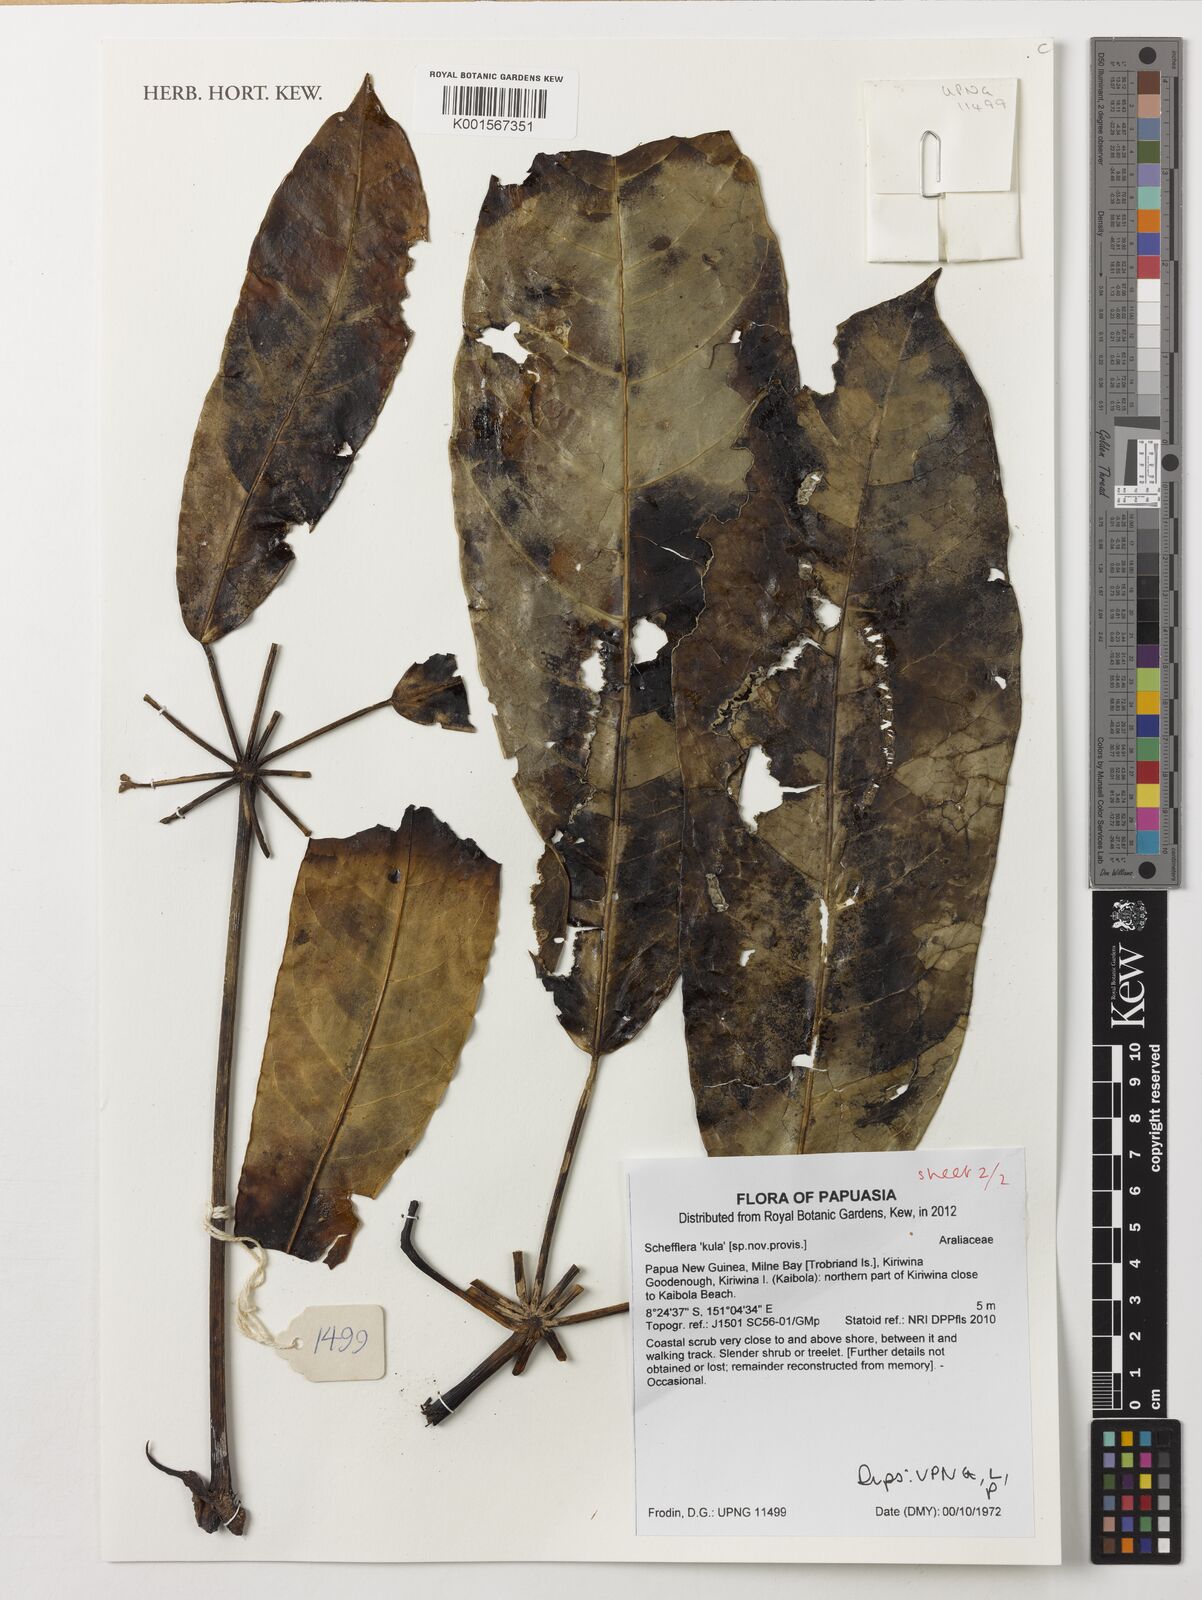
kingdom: Plantae
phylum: Tracheophyta
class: Magnoliopsida
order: Apiales
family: Araliaceae
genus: Schefflera
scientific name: Schefflera
